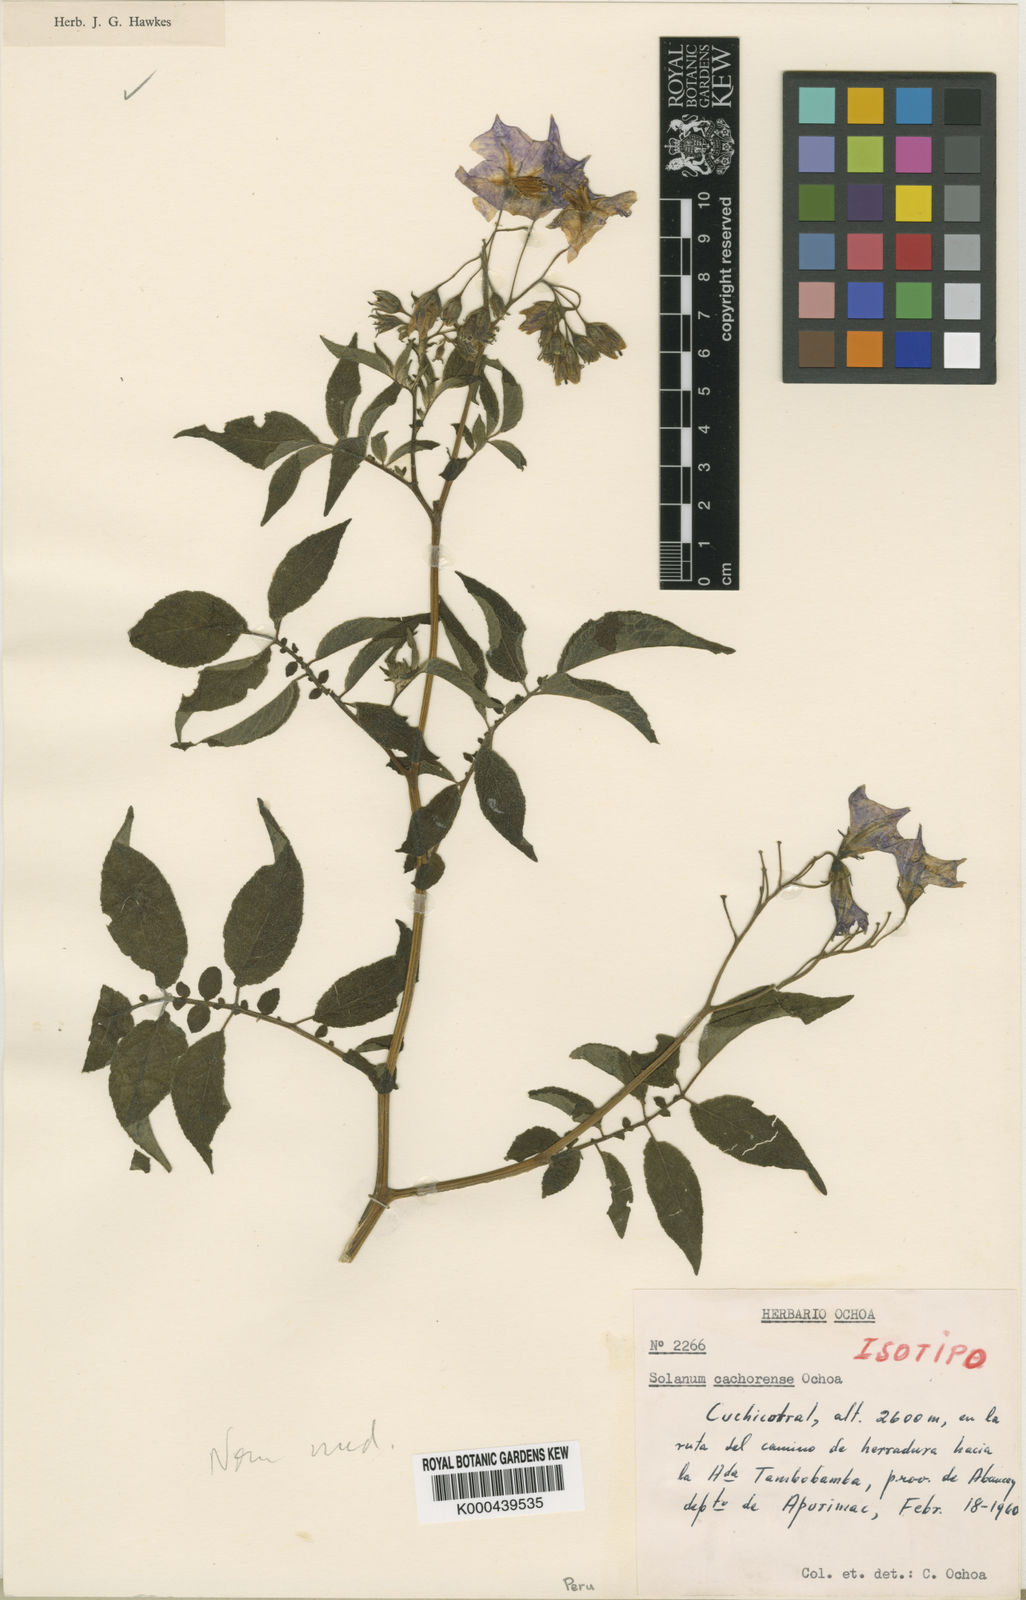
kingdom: Plantae
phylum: Tracheophyta
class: Magnoliopsida
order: Solanales
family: Solanaceae
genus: Solanum
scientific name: Solanum
